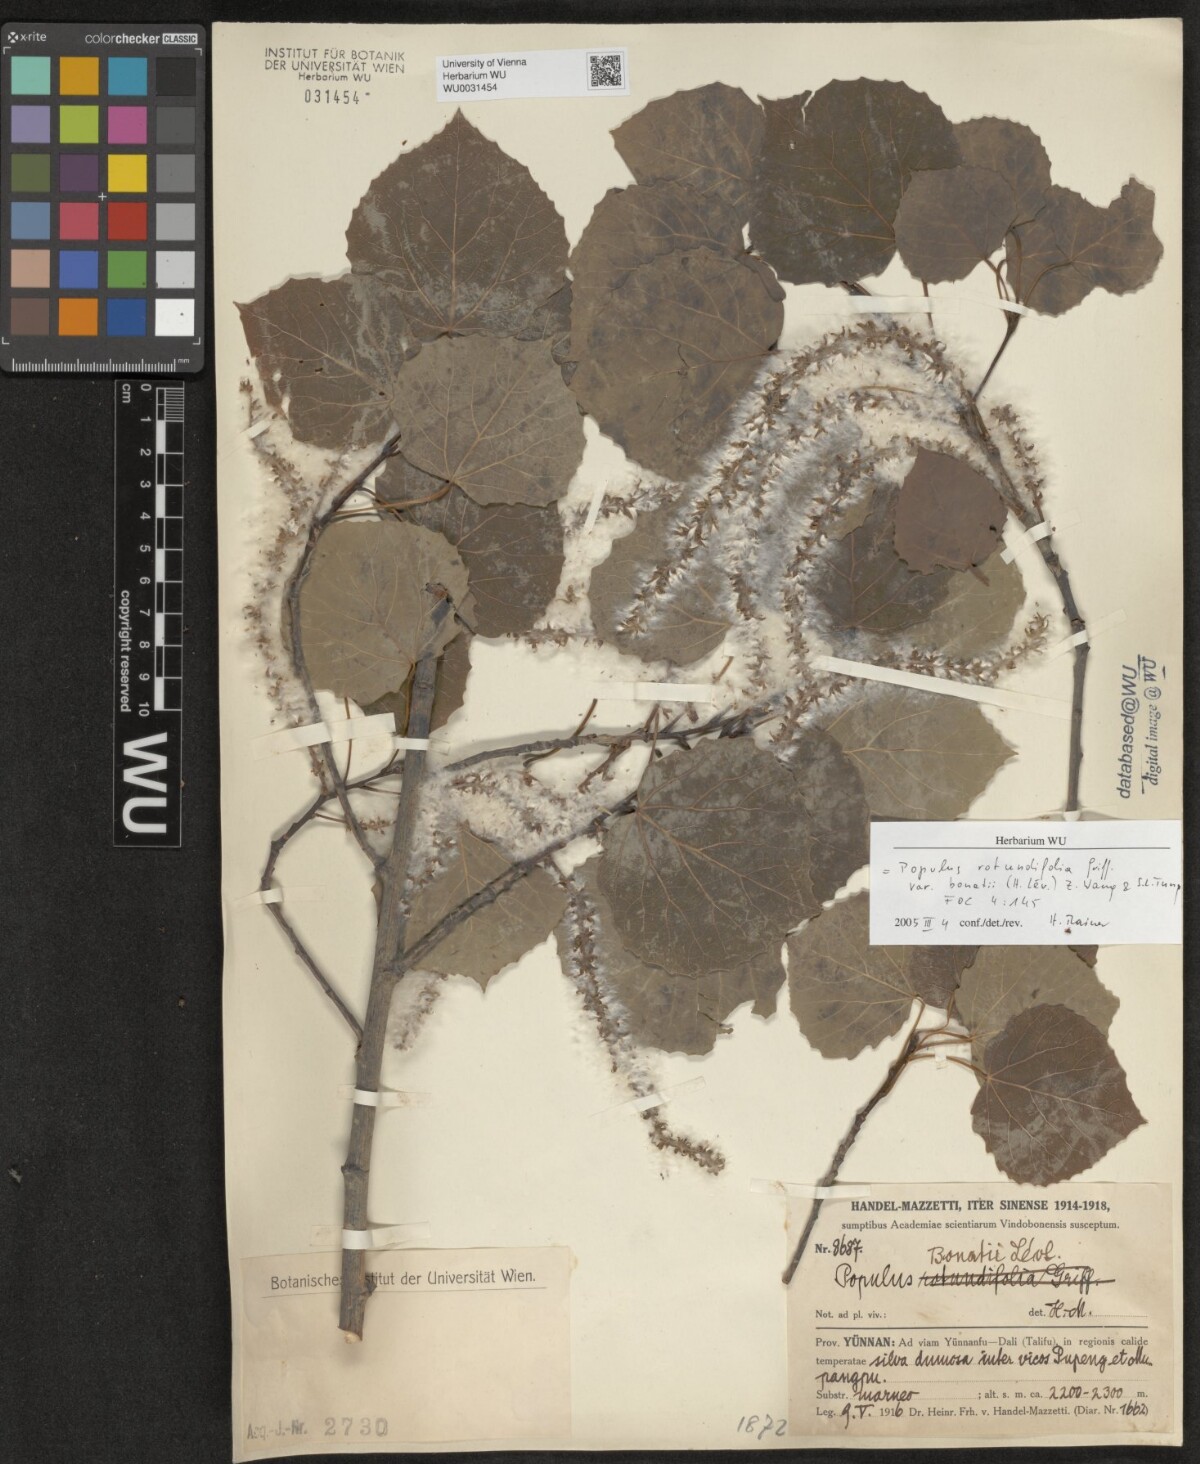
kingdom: Plantae
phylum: Tracheophyta
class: Magnoliopsida
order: Malpighiales
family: Salicaceae
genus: Populus
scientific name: Populus rotundifolia
